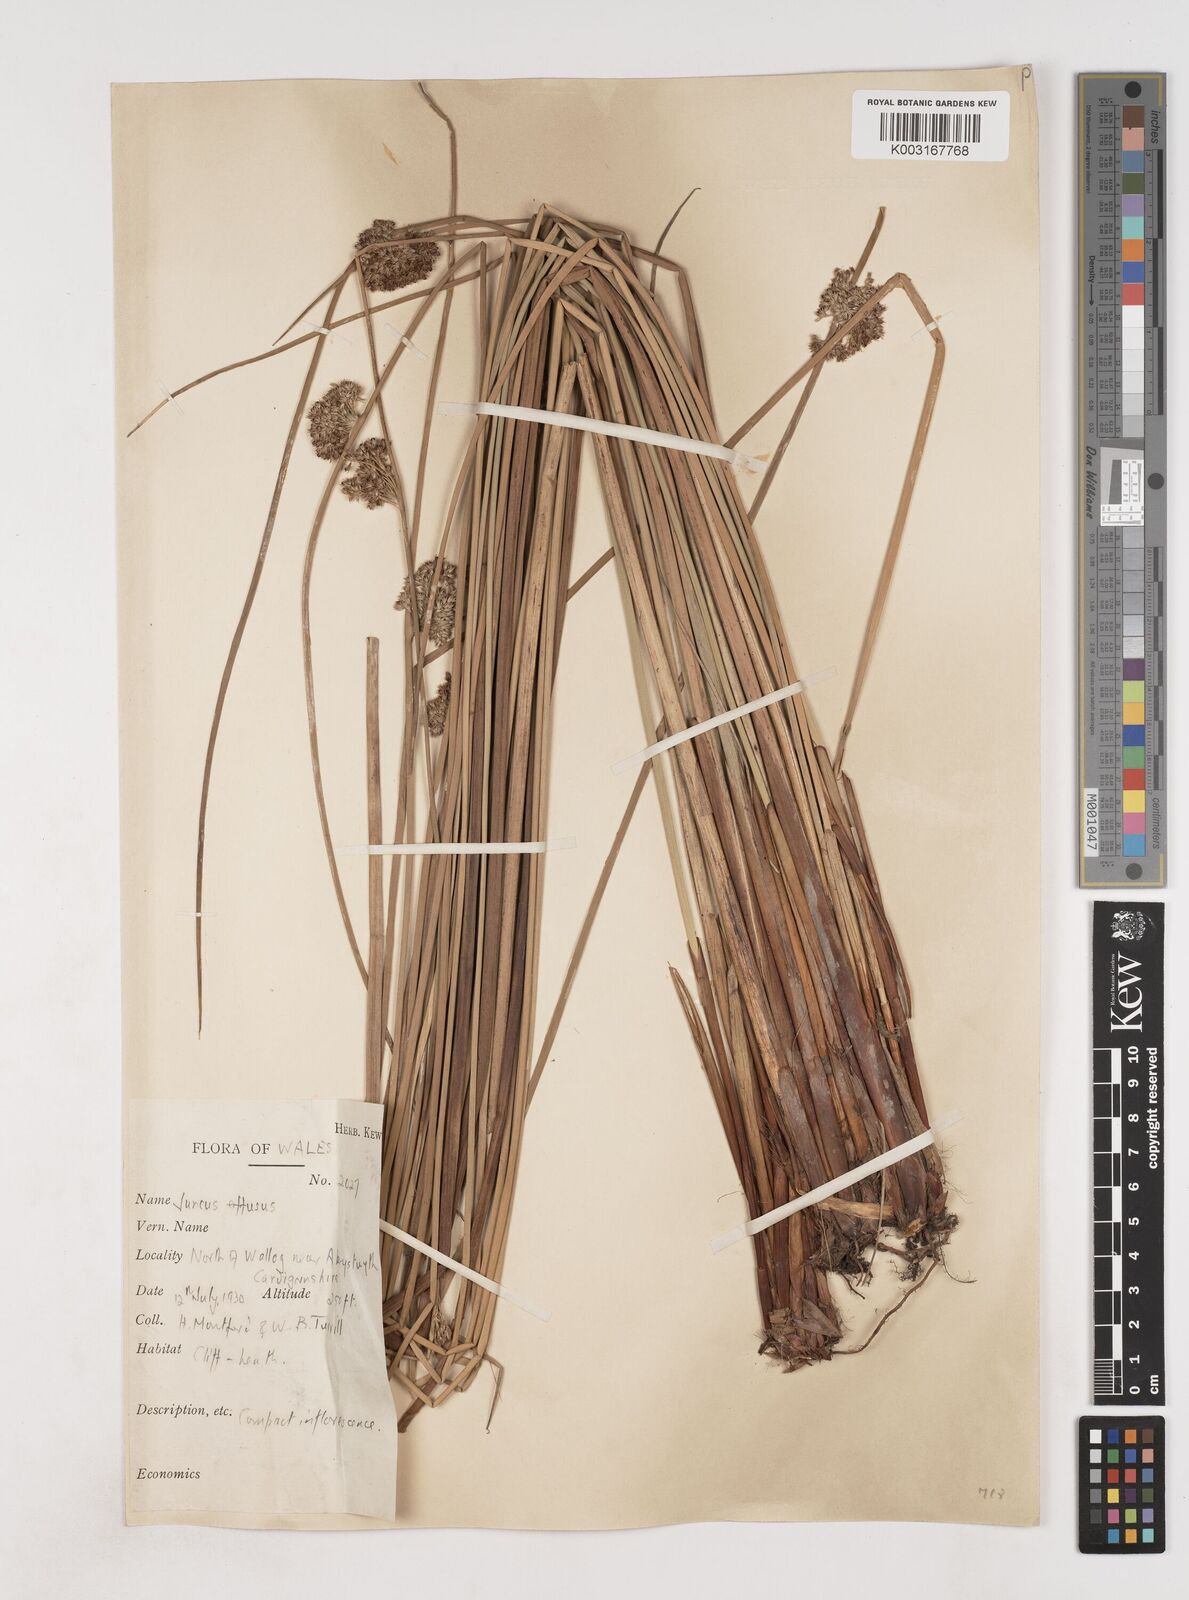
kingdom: Plantae
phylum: Tracheophyta
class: Liliopsida
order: Poales
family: Juncaceae
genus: Juncus
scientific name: Juncus effusus
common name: Soft rush
